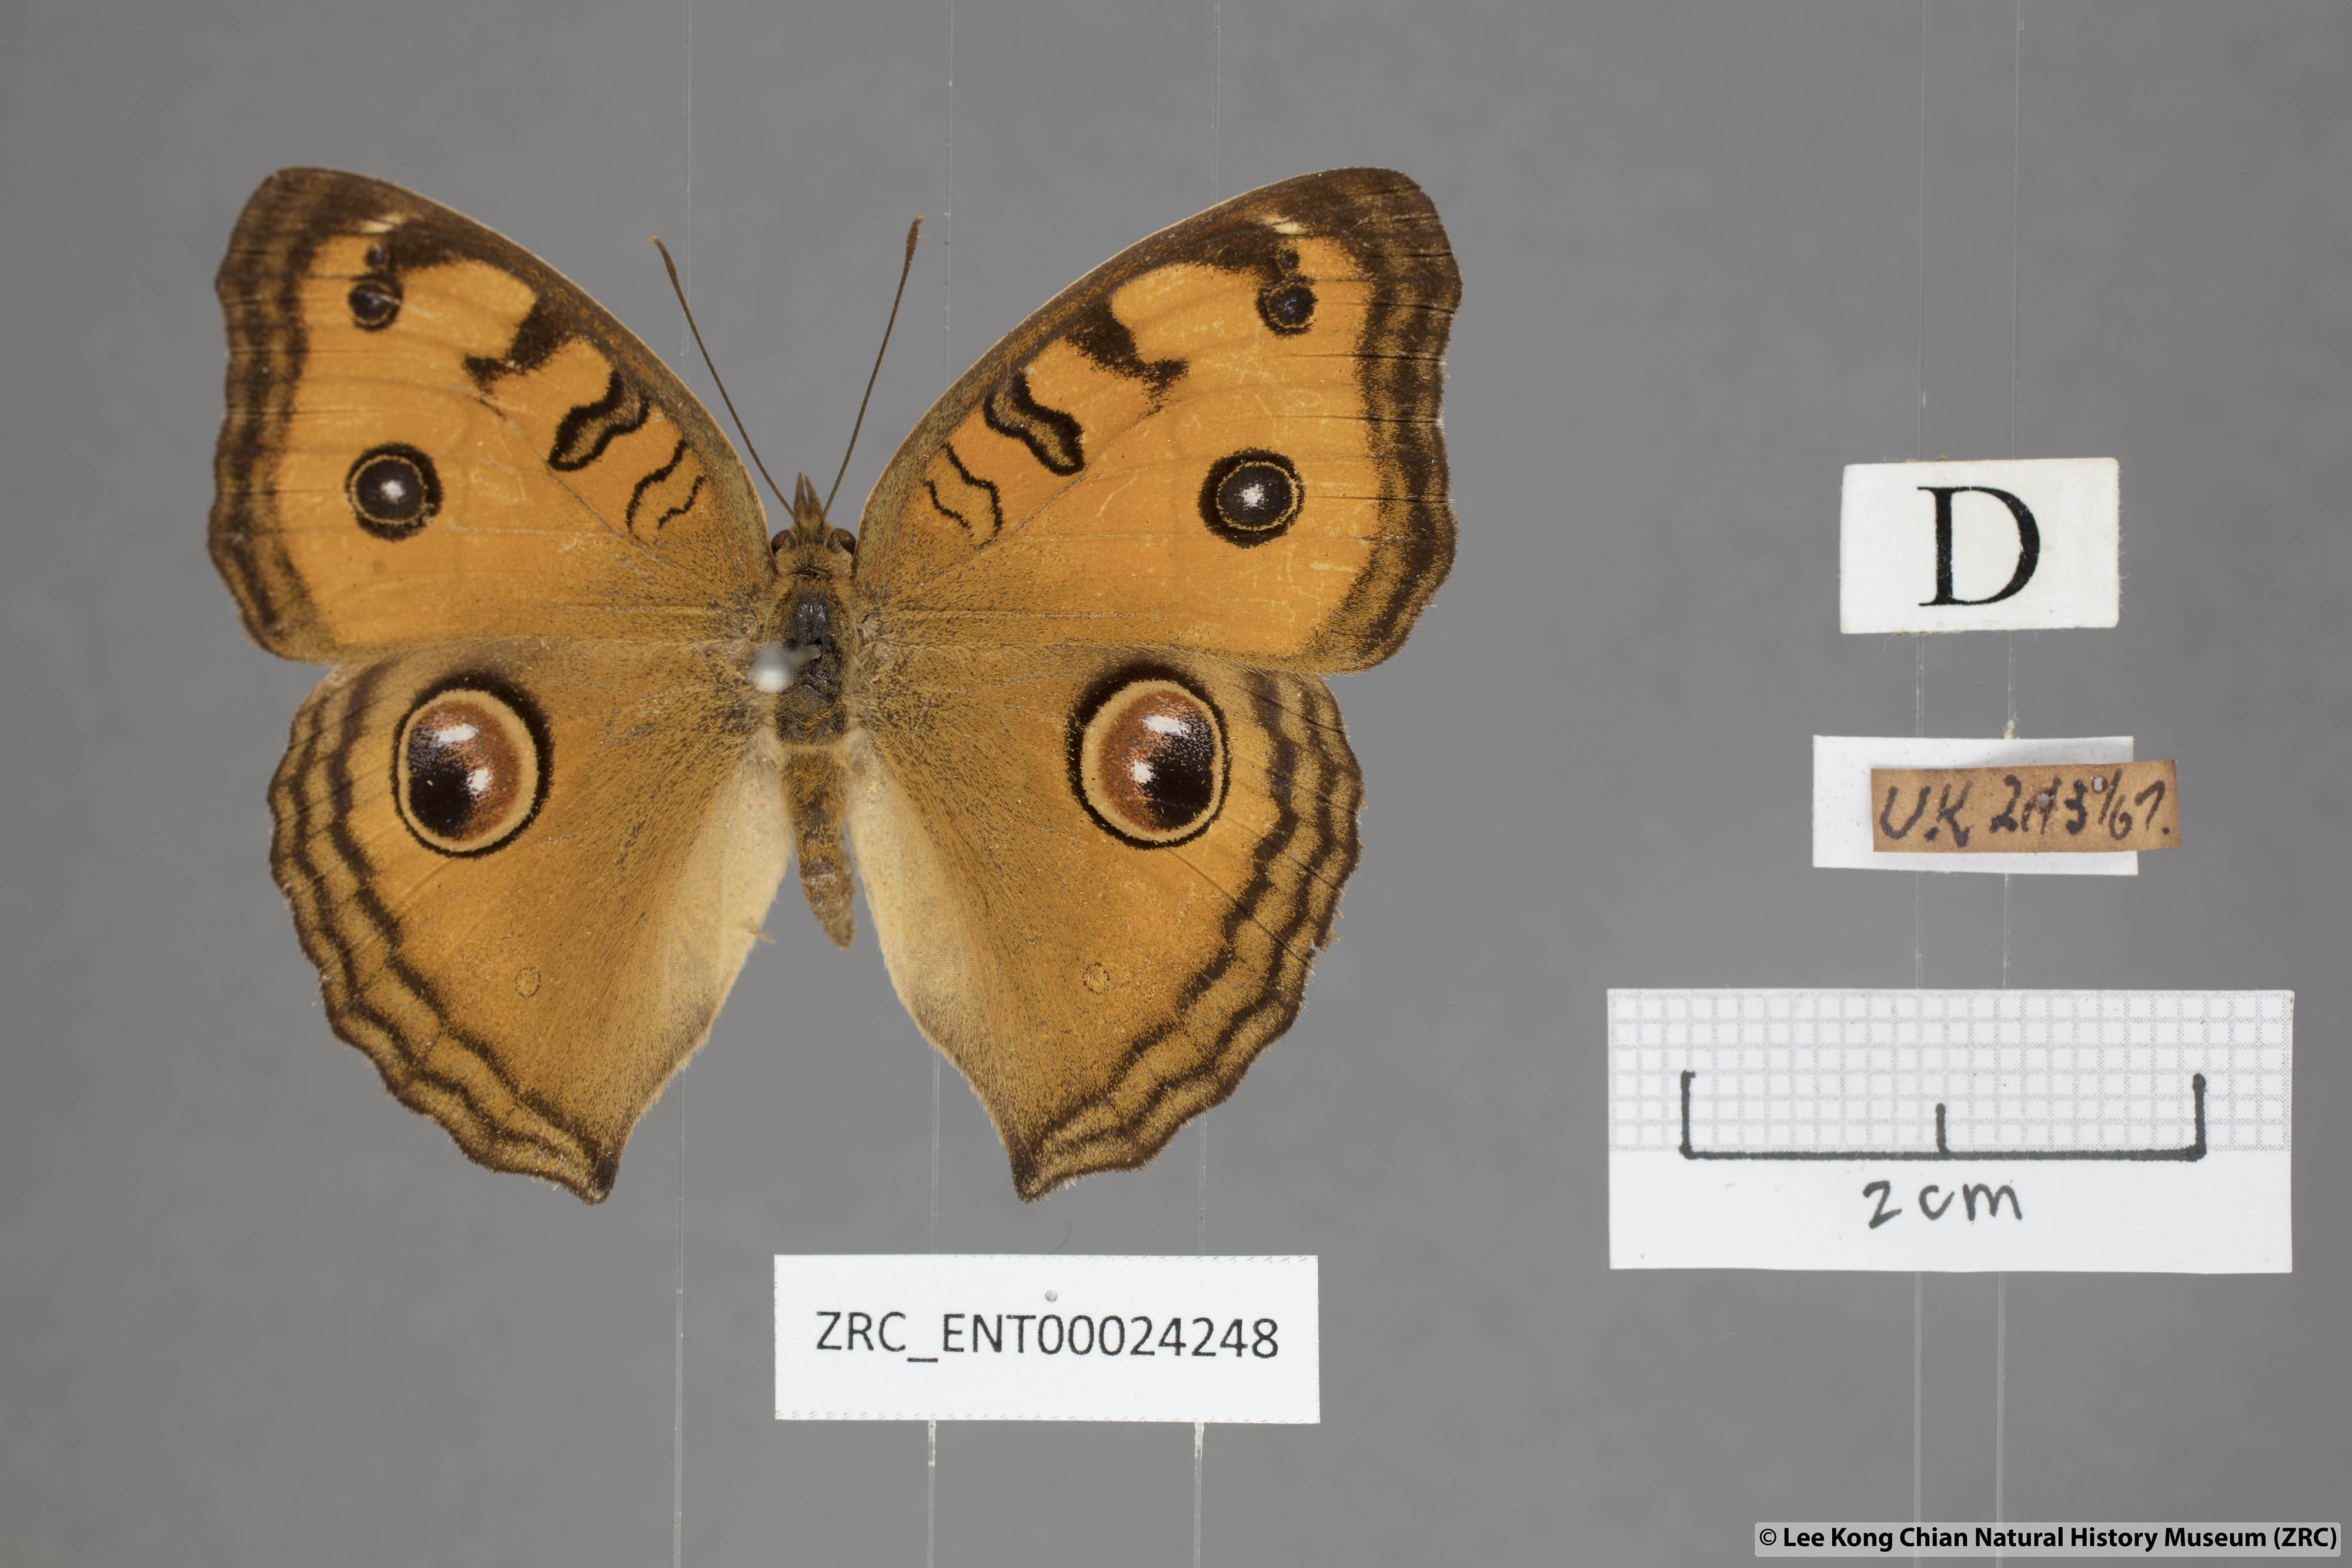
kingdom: Animalia
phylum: Arthropoda
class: Insecta
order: Lepidoptera
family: Nymphalidae
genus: Junonia
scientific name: Junonia almana
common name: Peacock pansy
